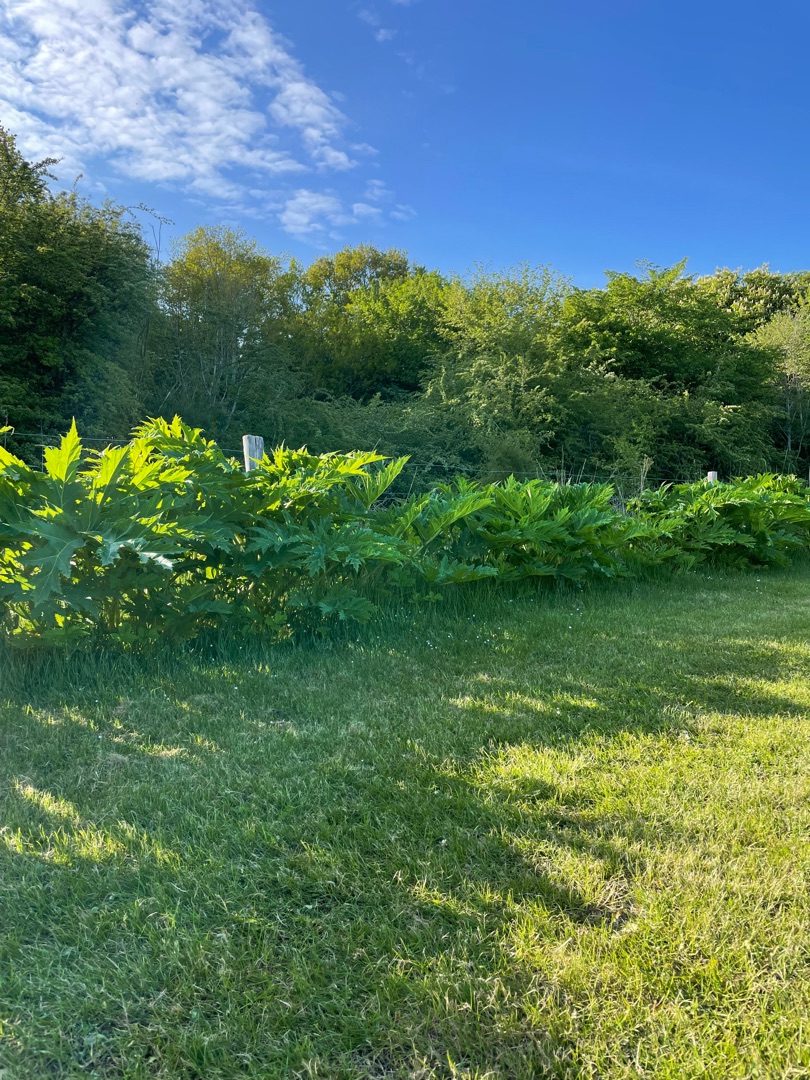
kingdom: Plantae
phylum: Tracheophyta
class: Magnoliopsida
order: Apiales
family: Apiaceae
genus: Heracleum
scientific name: Heracleum mantegazzianum
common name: Kæmpe-bjørneklo
